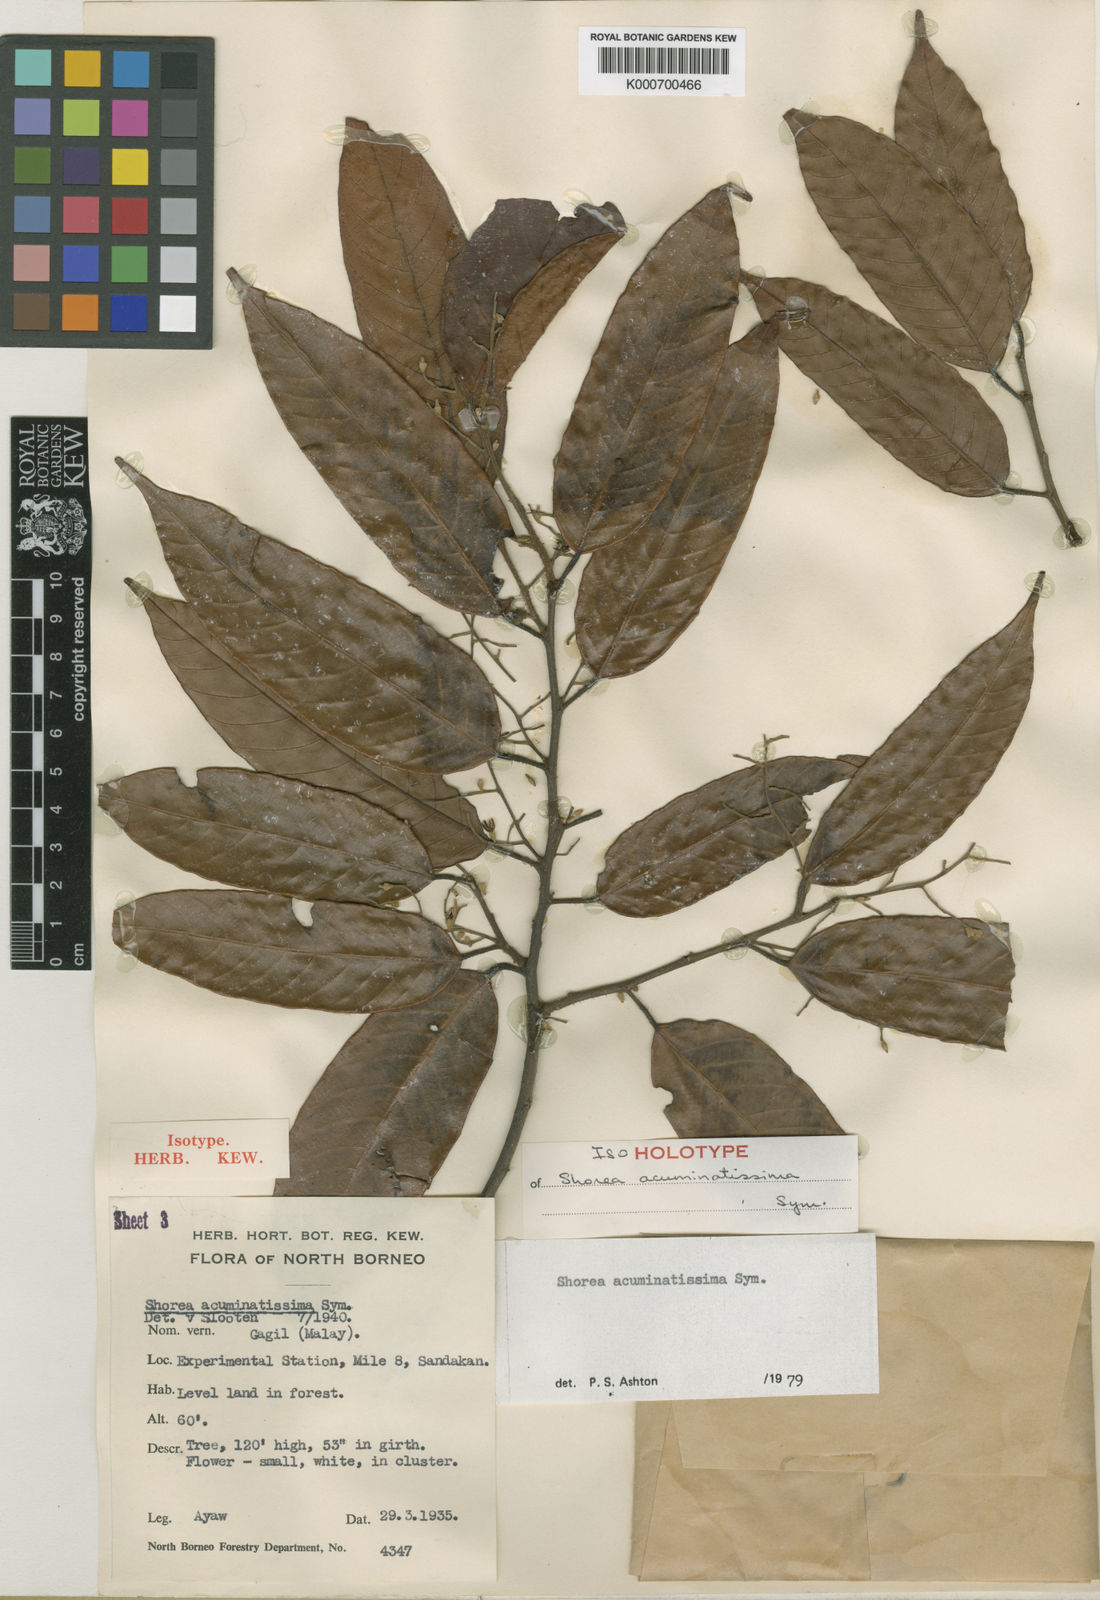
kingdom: Plantae
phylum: Tracheophyta
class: Magnoliopsida
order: Malvales
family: Dipterocarpaceae
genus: Shorea
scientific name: Shorea acuminatissima
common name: Yellow meranti
